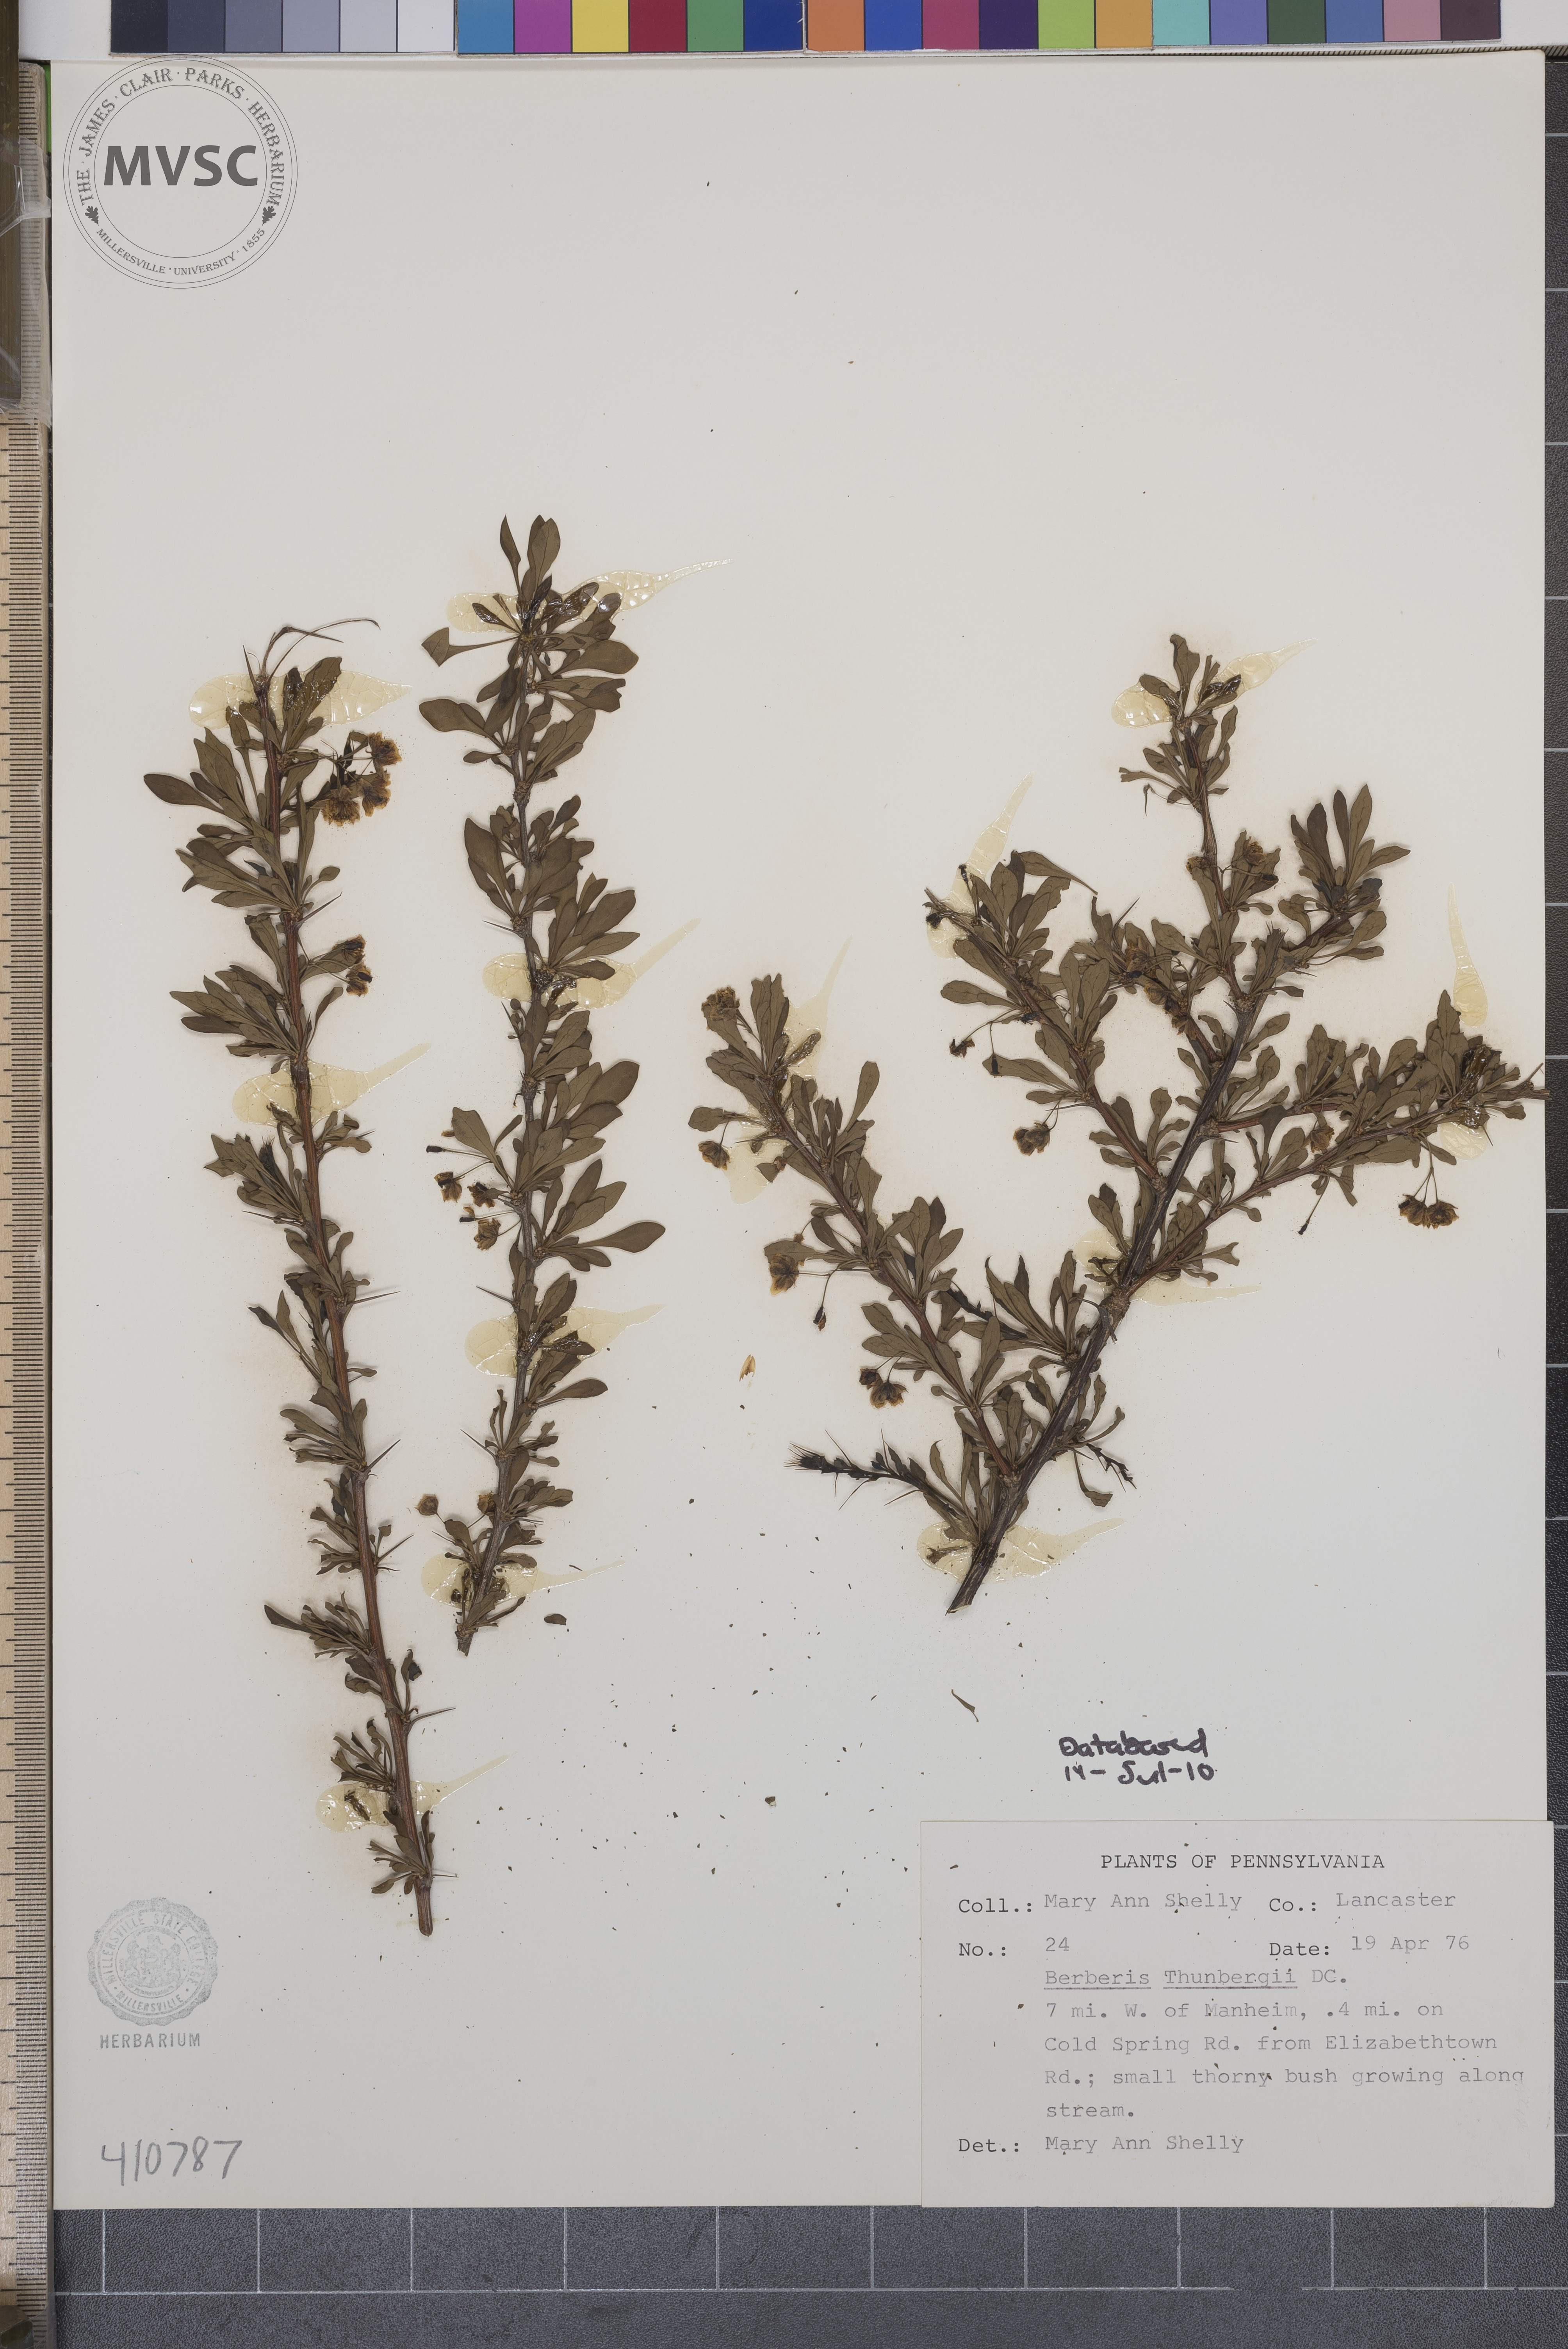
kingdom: Plantae
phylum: Tracheophyta
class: Magnoliopsida
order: Ranunculales
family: Berberidaceae
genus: Berberis
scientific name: Berberis thunbergii
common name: Japanese barberry
